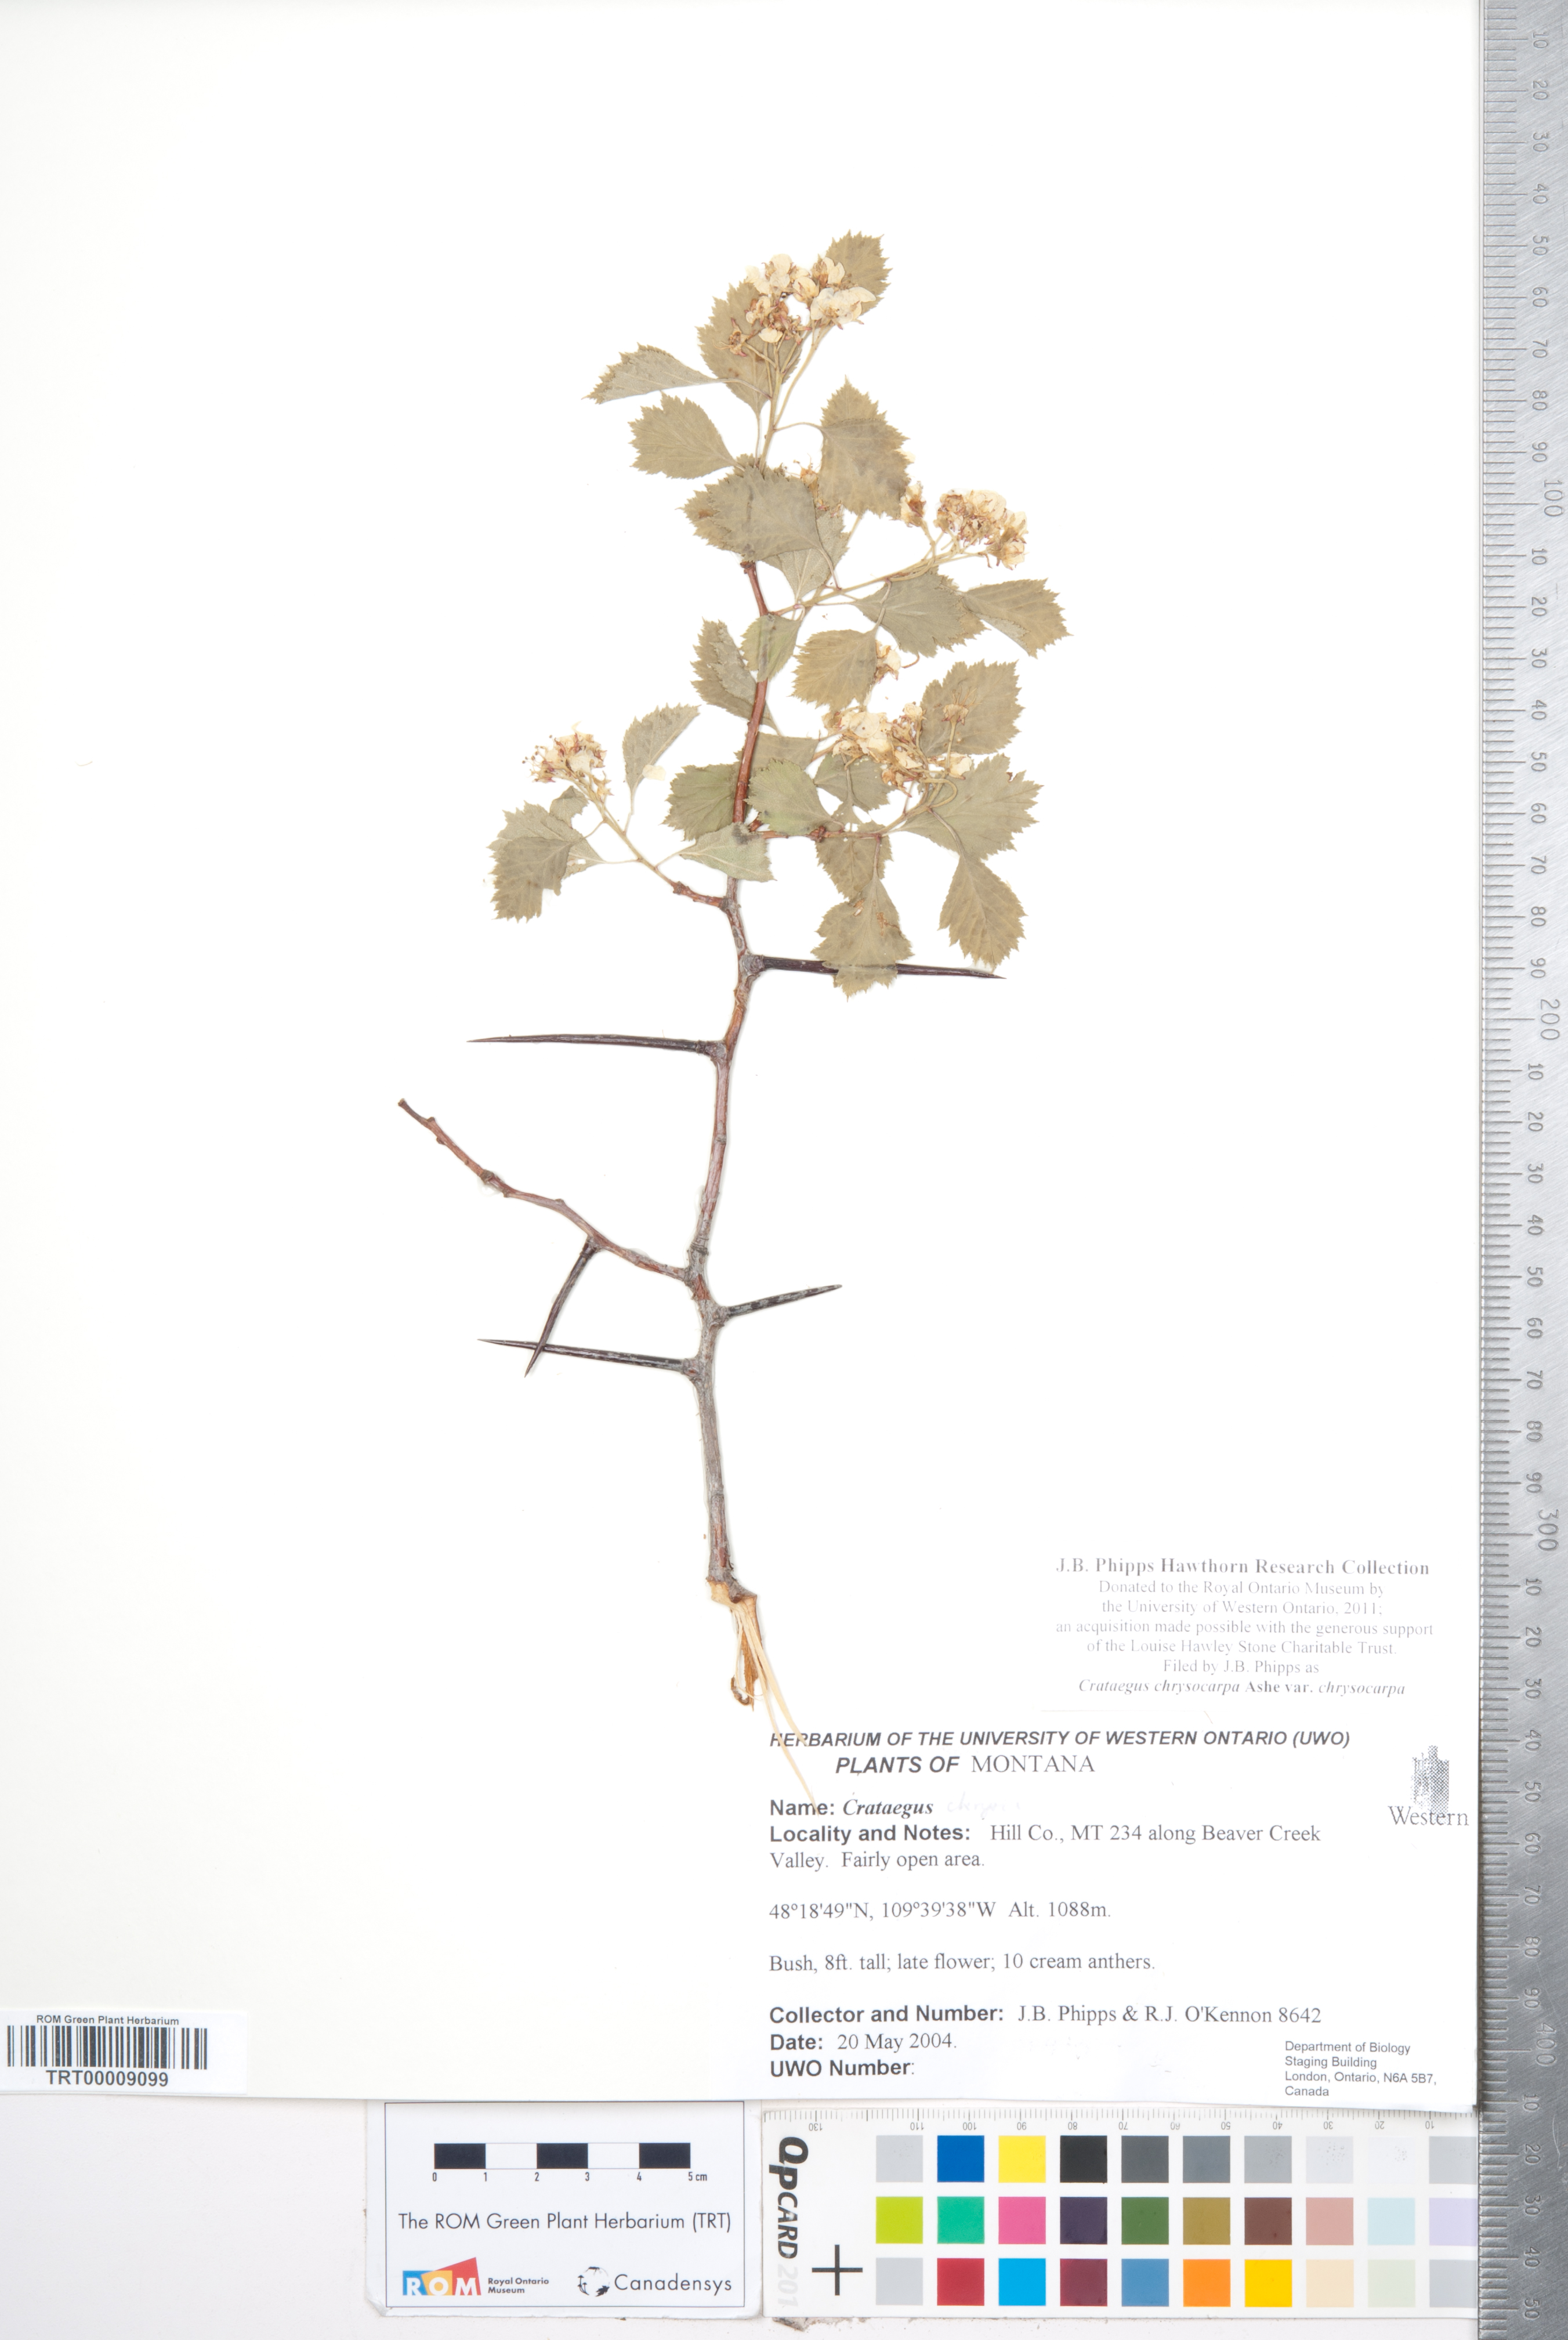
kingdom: Plantae
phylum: Tracheophyta
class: Magnoliopsida
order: Rosales
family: Rosaceae
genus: Crataegus
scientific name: Crataegus chrysocarpa
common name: Fire-berry hawthorn
